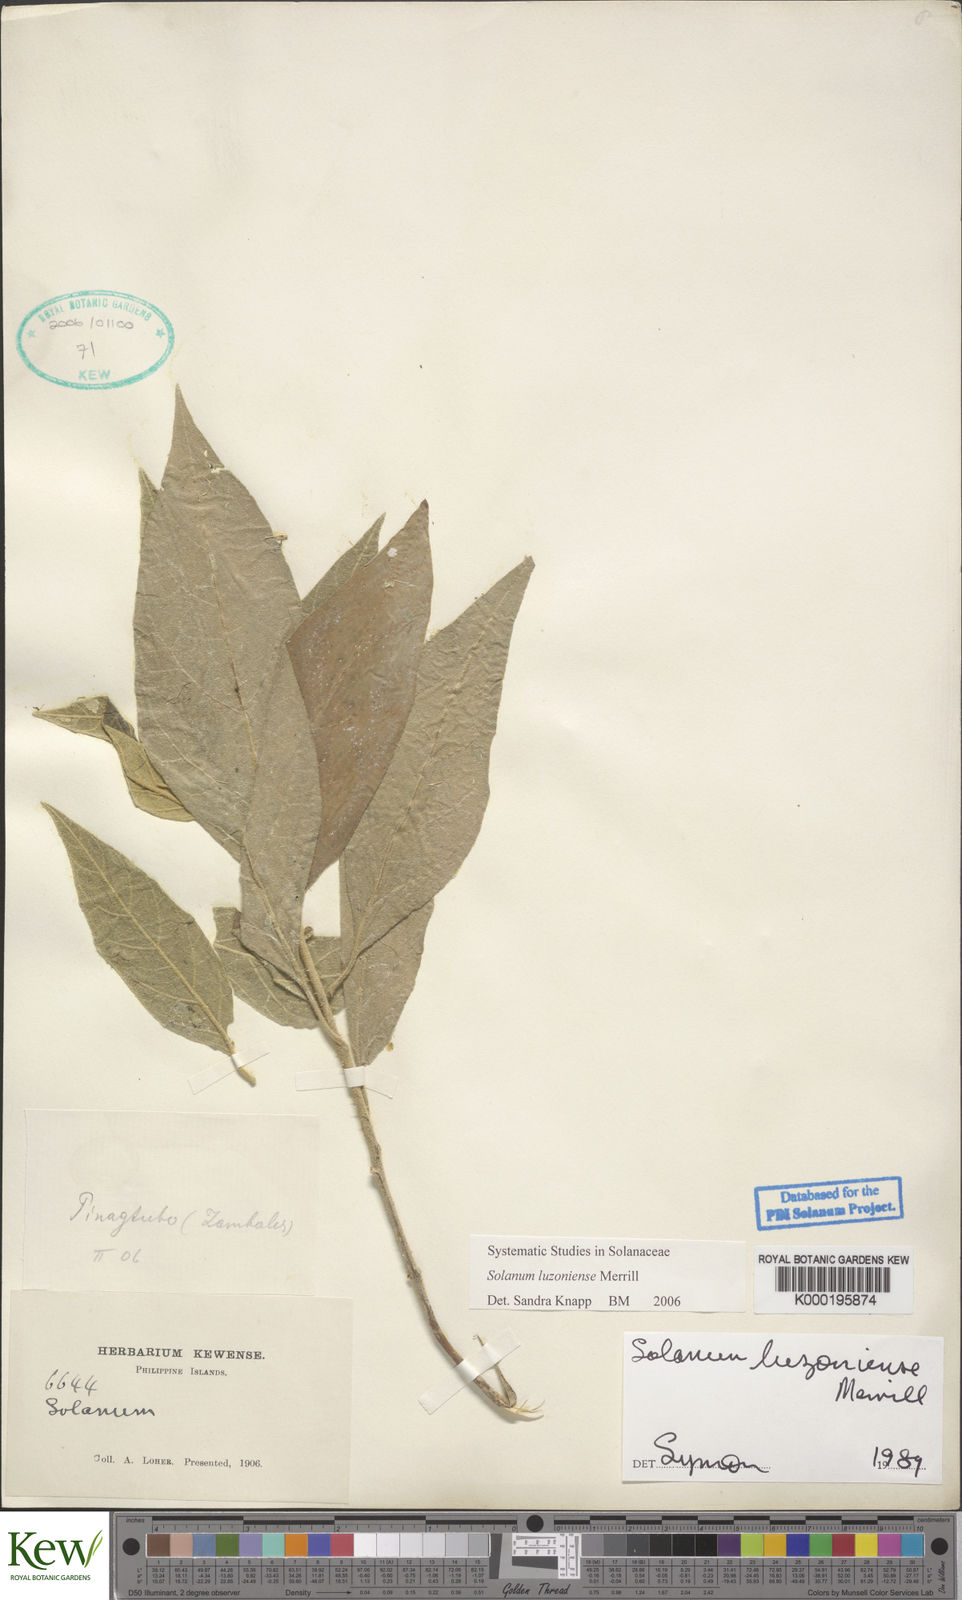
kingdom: Plantae
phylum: Tracheophyta
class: Magnoliopsida
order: Solanales
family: Solanaceae
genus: Solanum
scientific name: Solanum retrorsum
